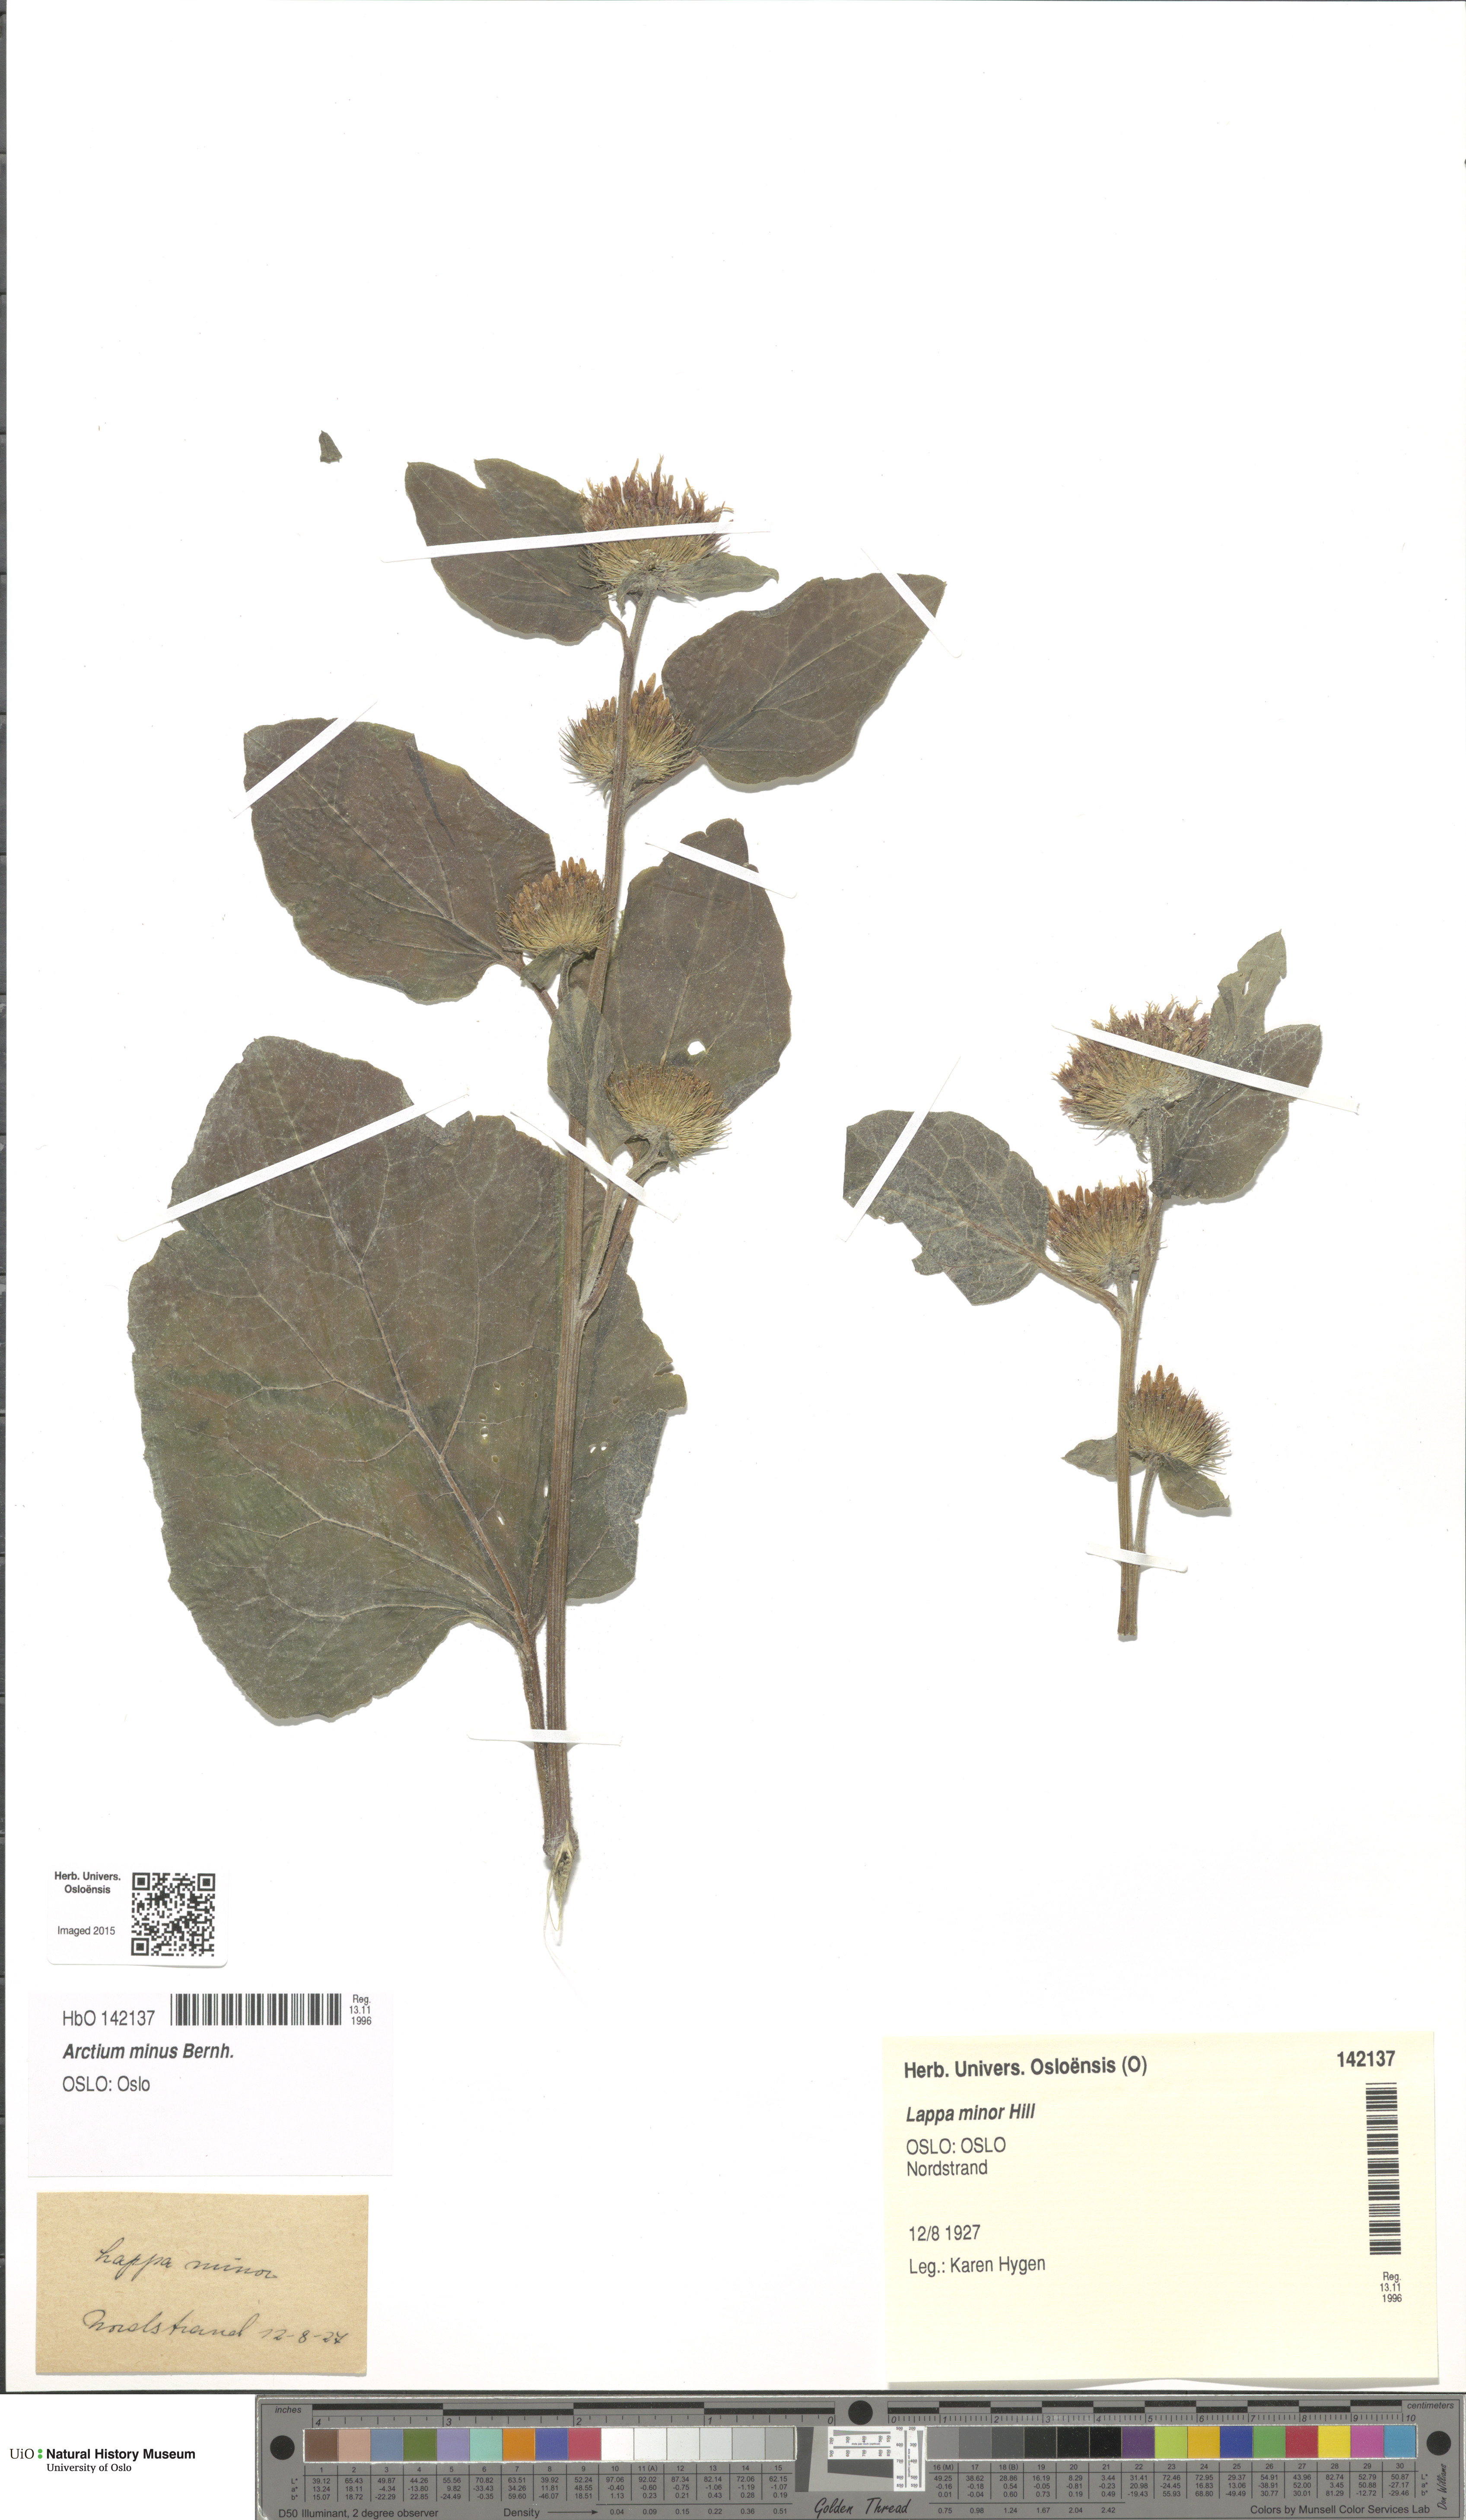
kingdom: Plantae
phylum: Tracheophyta
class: Magnoliopsida
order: Asterales
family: Asteraceae
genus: Arctium
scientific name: Arctium minus
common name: Lesser burdock
